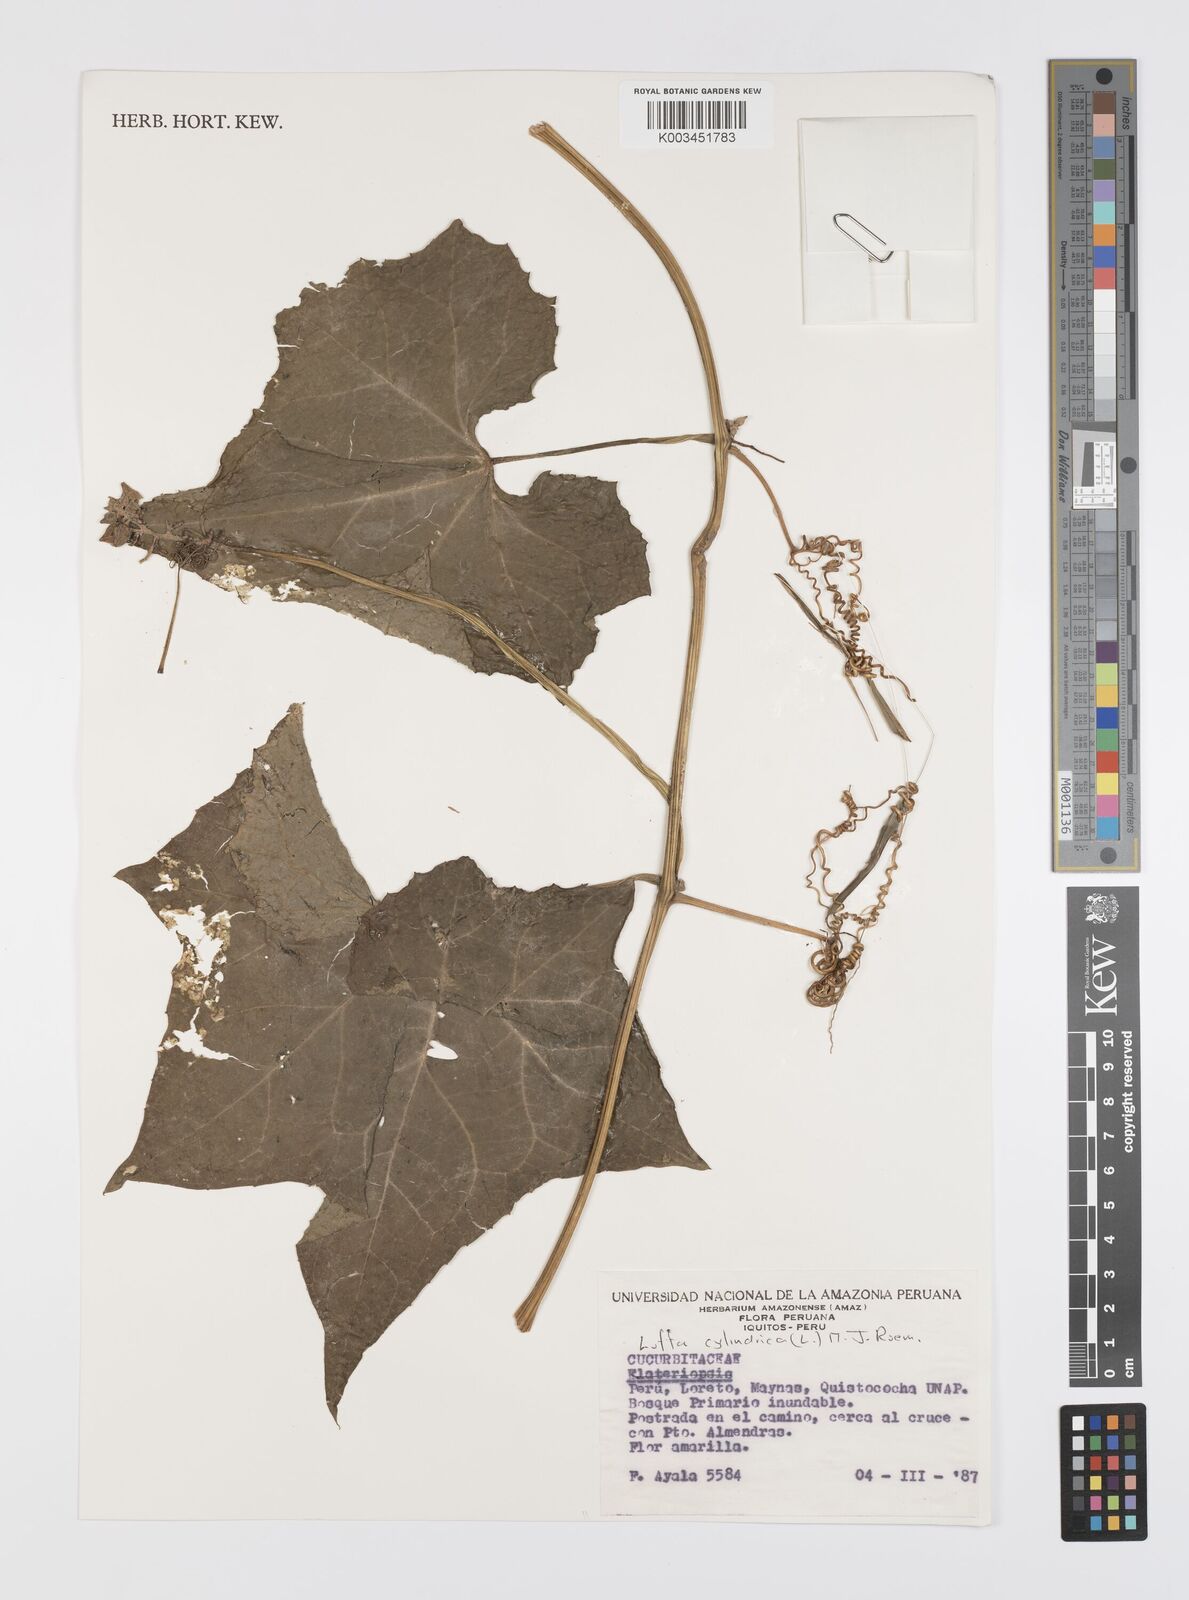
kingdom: Plantae
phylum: Tracheophyta
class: Magnoliopsida
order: Cucurbitales
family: Cucurbitaceae
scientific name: Cucurbitaceae
